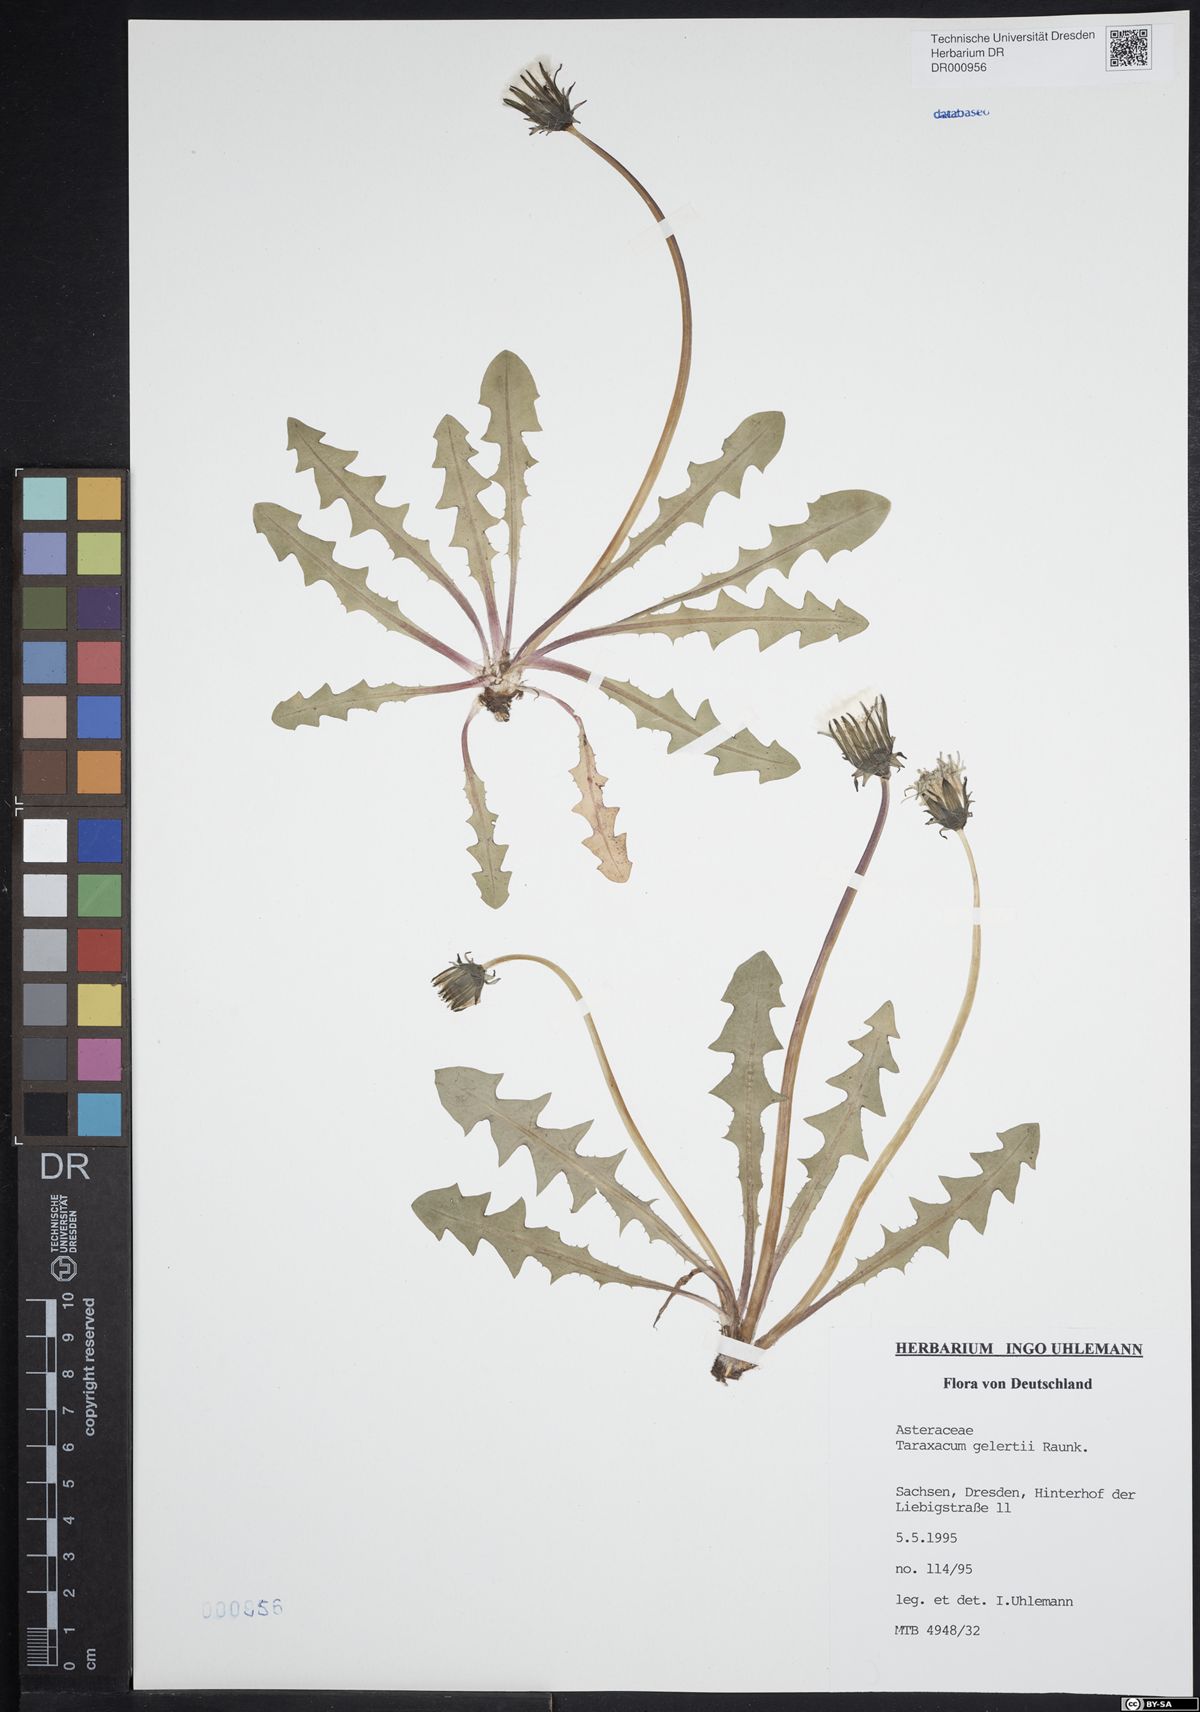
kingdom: Plantae
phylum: Tracheophyta
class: Magnoliopsida
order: Asterales
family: Asteraceae
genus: Taraxacum
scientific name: Taraxacum gelertii
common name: Gelert's dandelion
